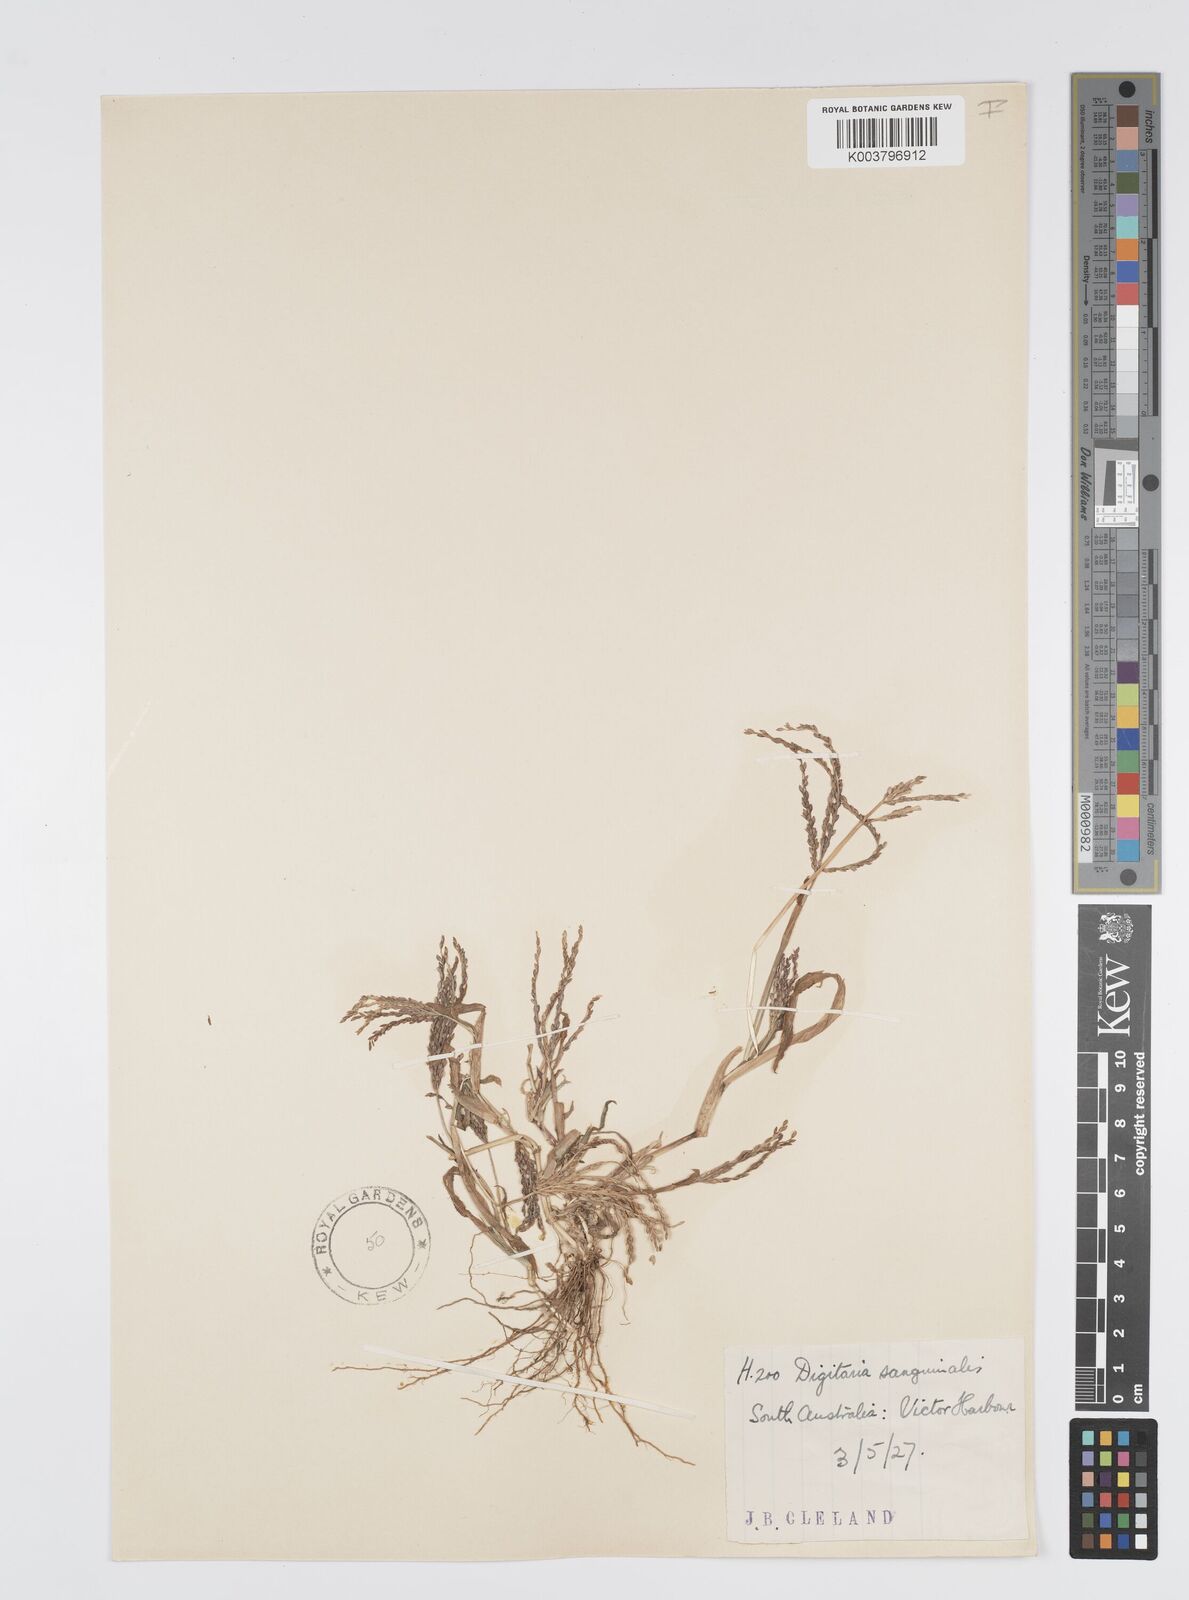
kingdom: Plantae
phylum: Tracheophyta
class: Liliopsida
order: Poales
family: Poaceae
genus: Digitaria
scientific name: Digitaria sanguinalis
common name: Hairy crabgrass
